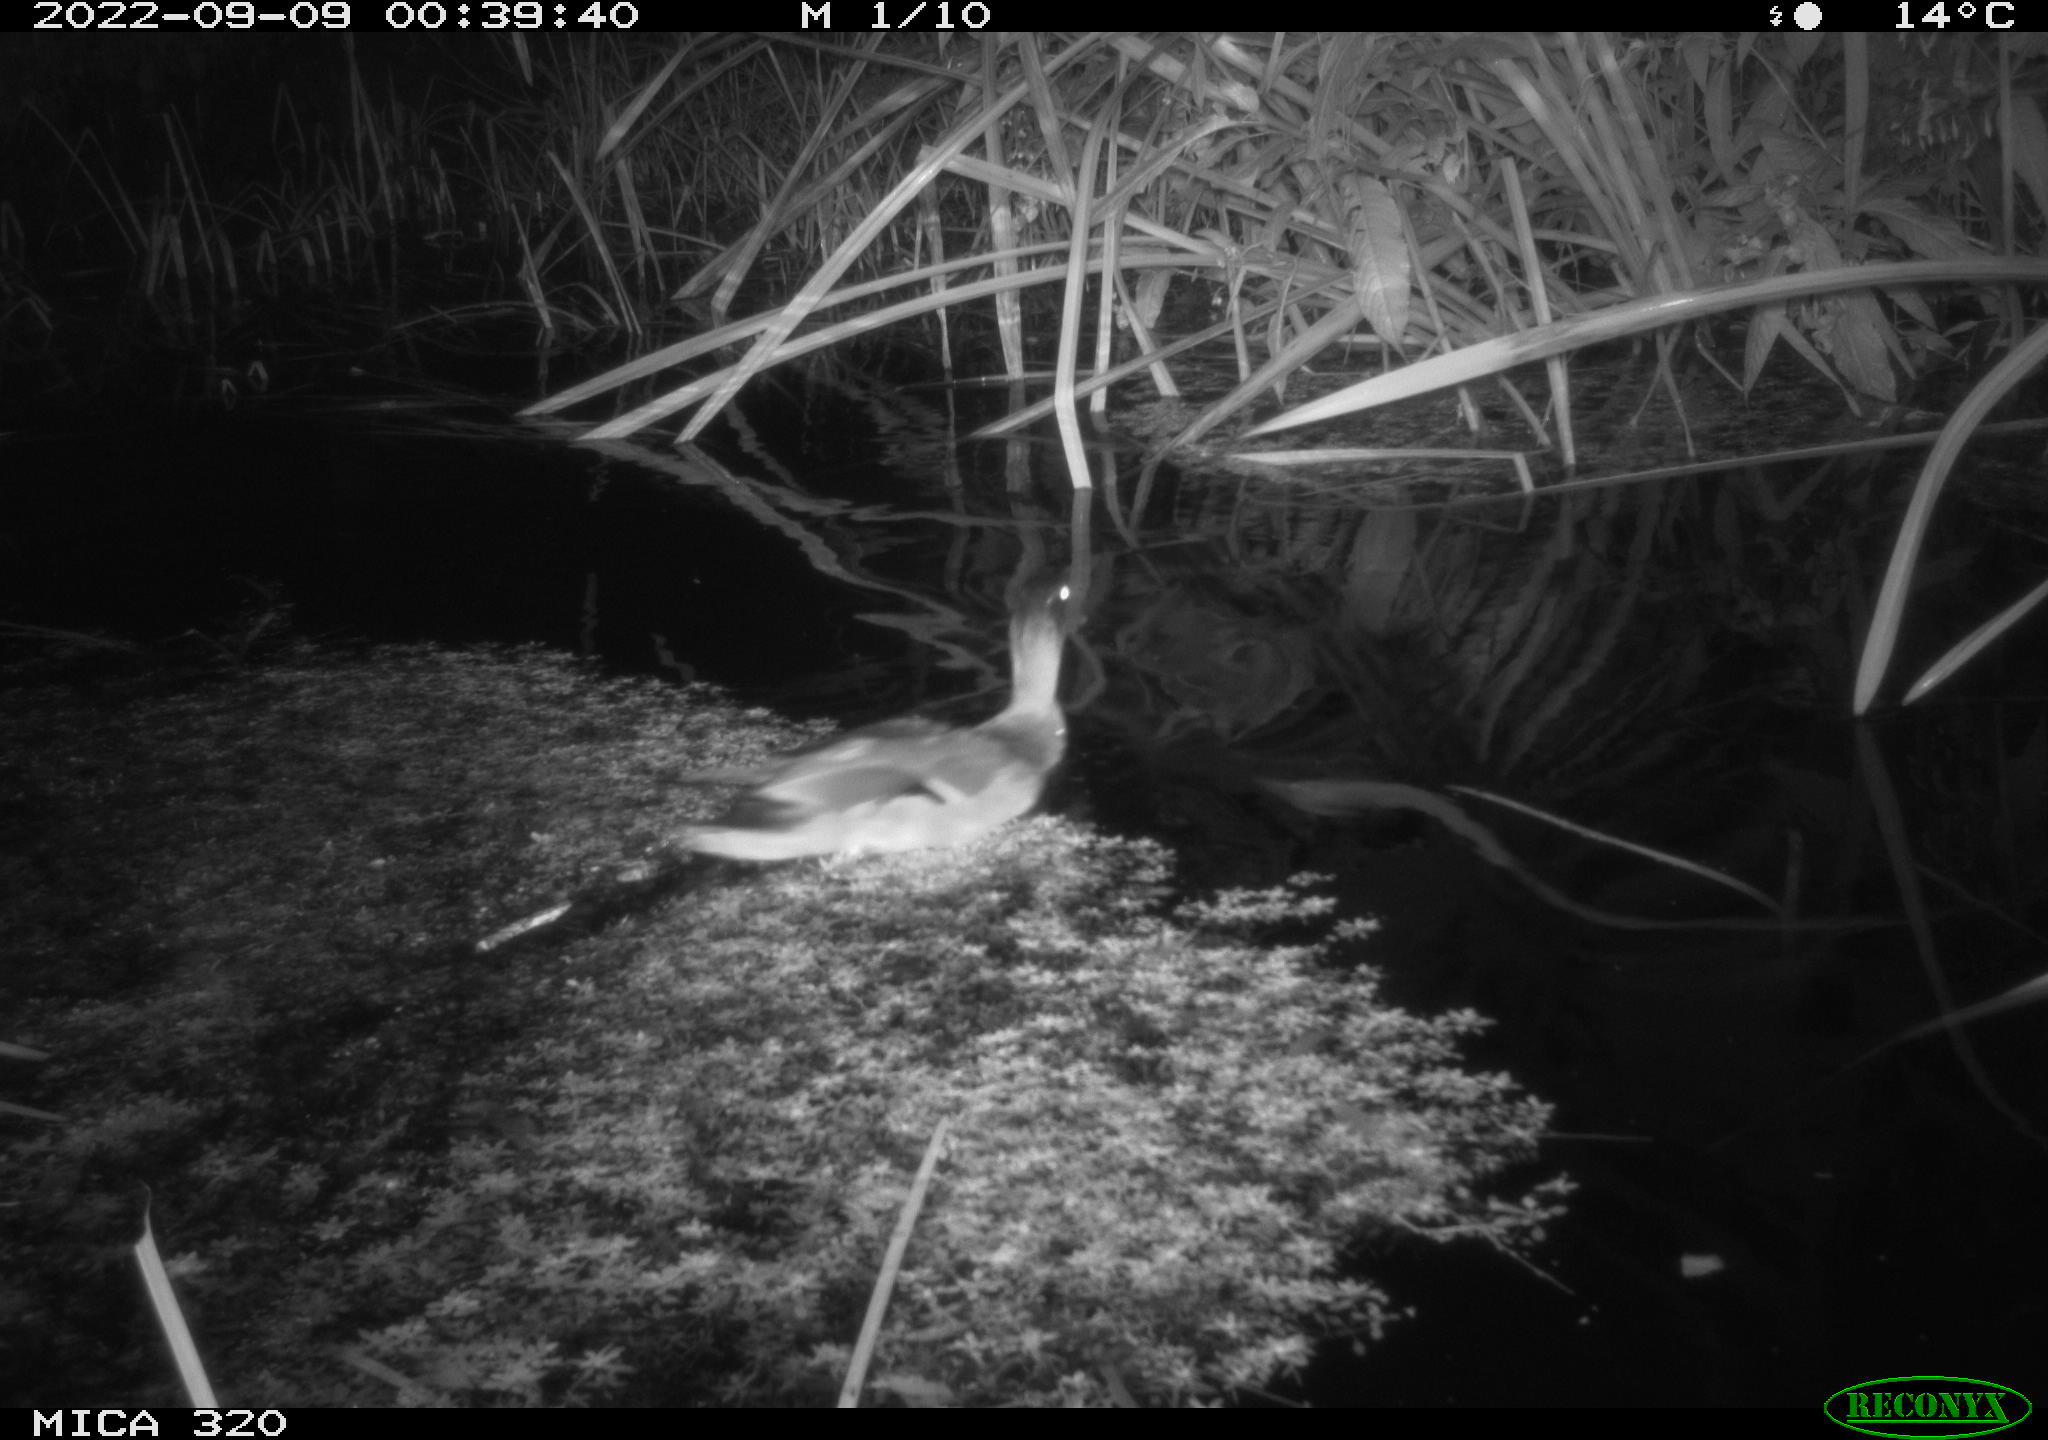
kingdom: Animalia
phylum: Chordata
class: Aves
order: Anseriformes
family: Anatidae
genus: Anas
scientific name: Anas platyrhynchos
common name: Mallard
